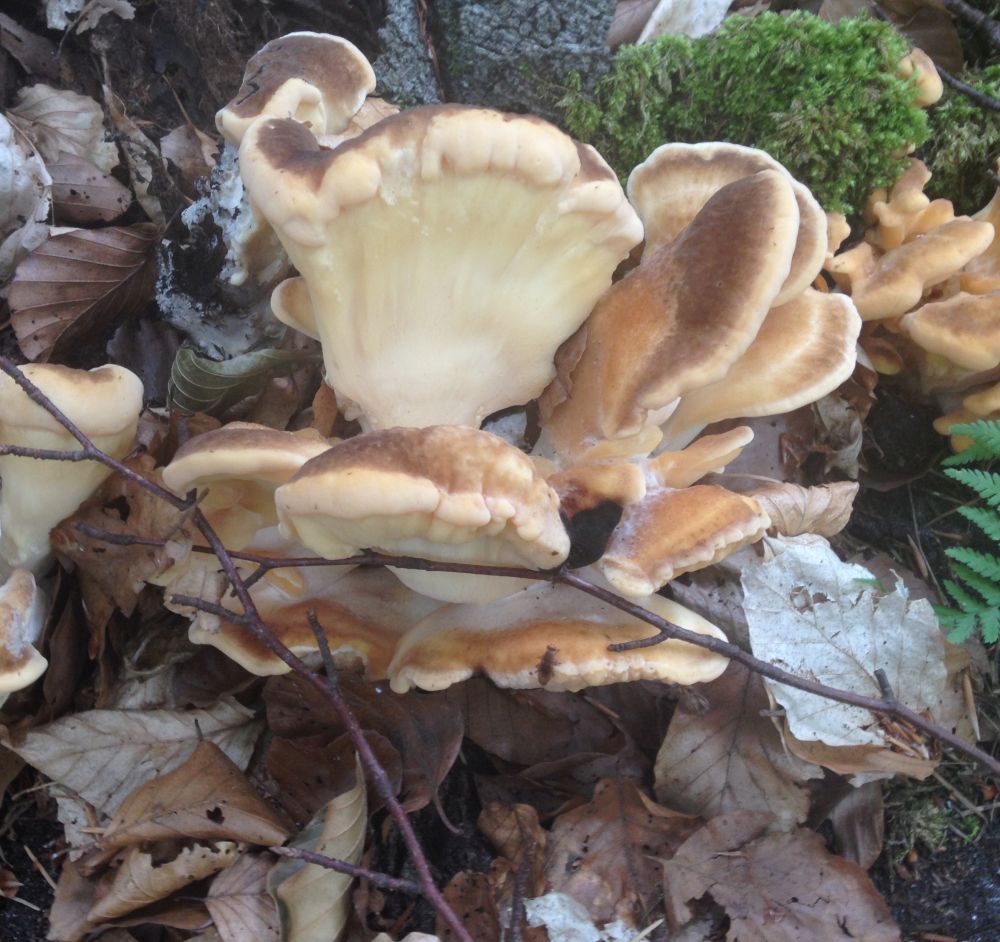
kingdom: Fungi
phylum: Basidiomycota
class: Agaricomycetes
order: Polyporales
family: Meripilaceae
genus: Meripilus
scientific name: Meripilus giganteus
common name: kæmpeporesvamp
